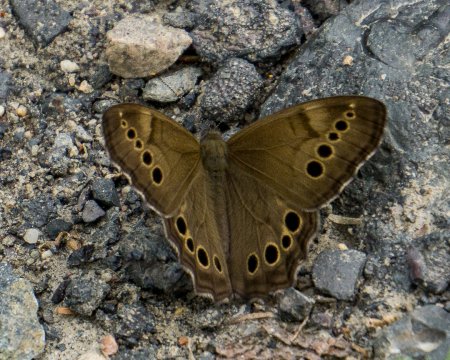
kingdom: Animalia
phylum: Arthropoda
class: Insecta
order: Lepidoptera
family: Nymphalidae
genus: Lethe
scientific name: Lethe anthedon
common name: Northern Pearly-Eye
